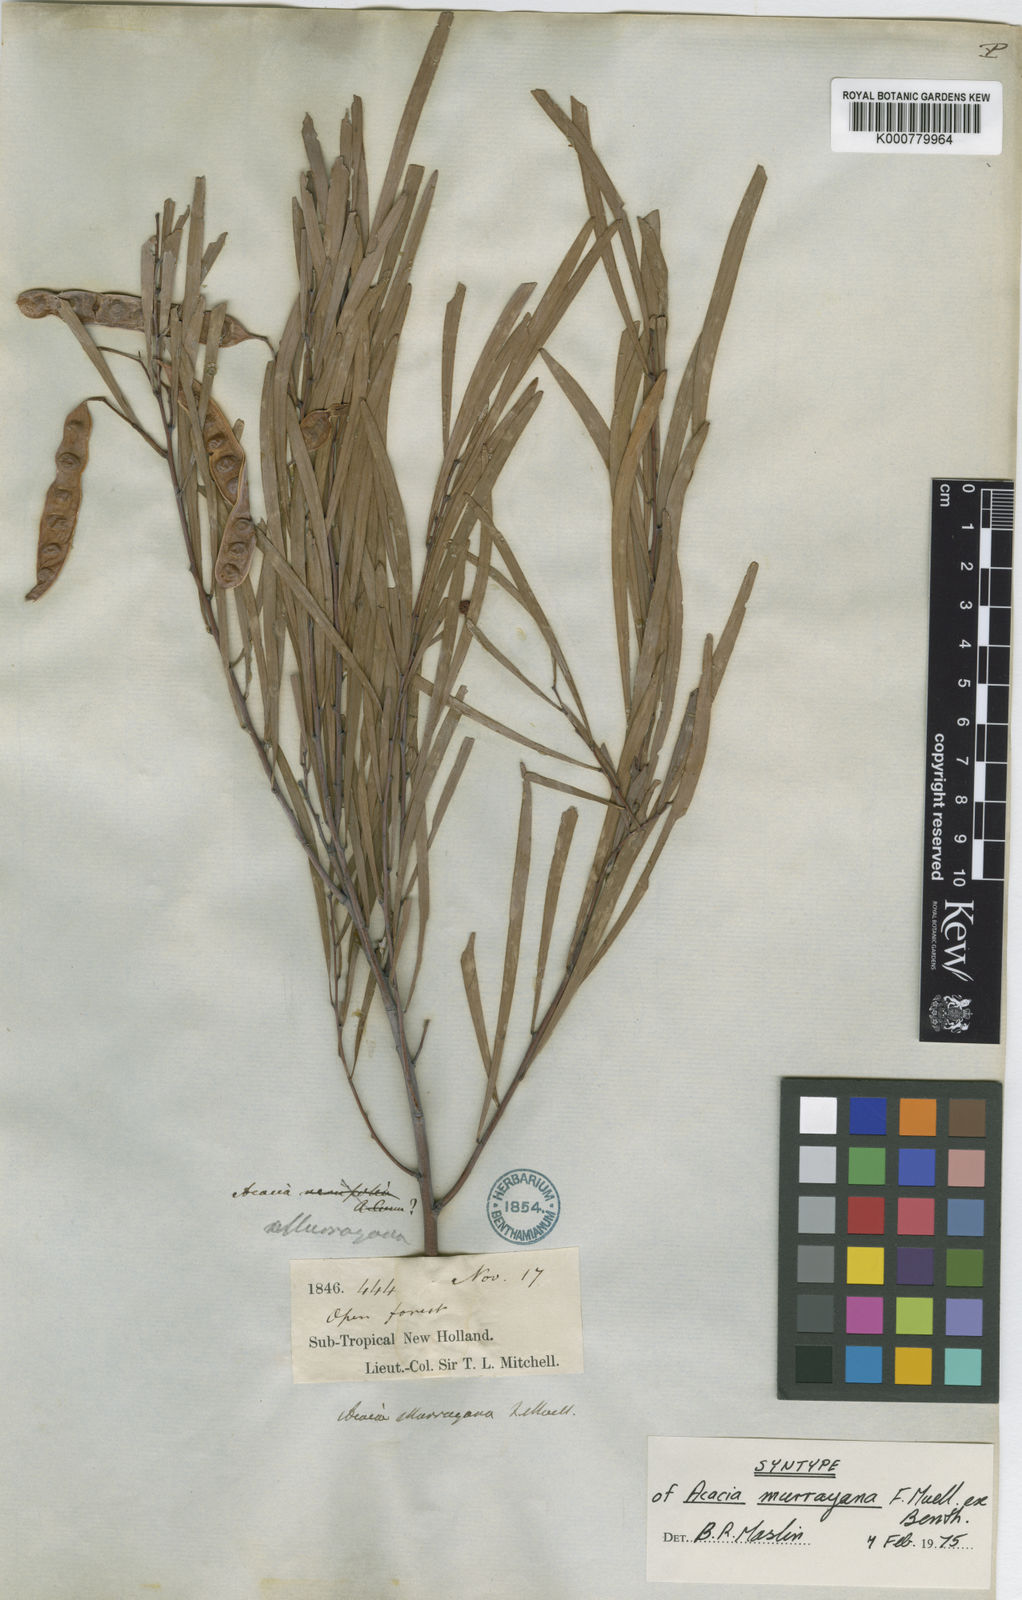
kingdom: Plantae
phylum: Tracheophyta
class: Magnoliopsida
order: Fabales
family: Fabaceae
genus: Acacia
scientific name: Acacia murrayana
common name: Murray's wattle
